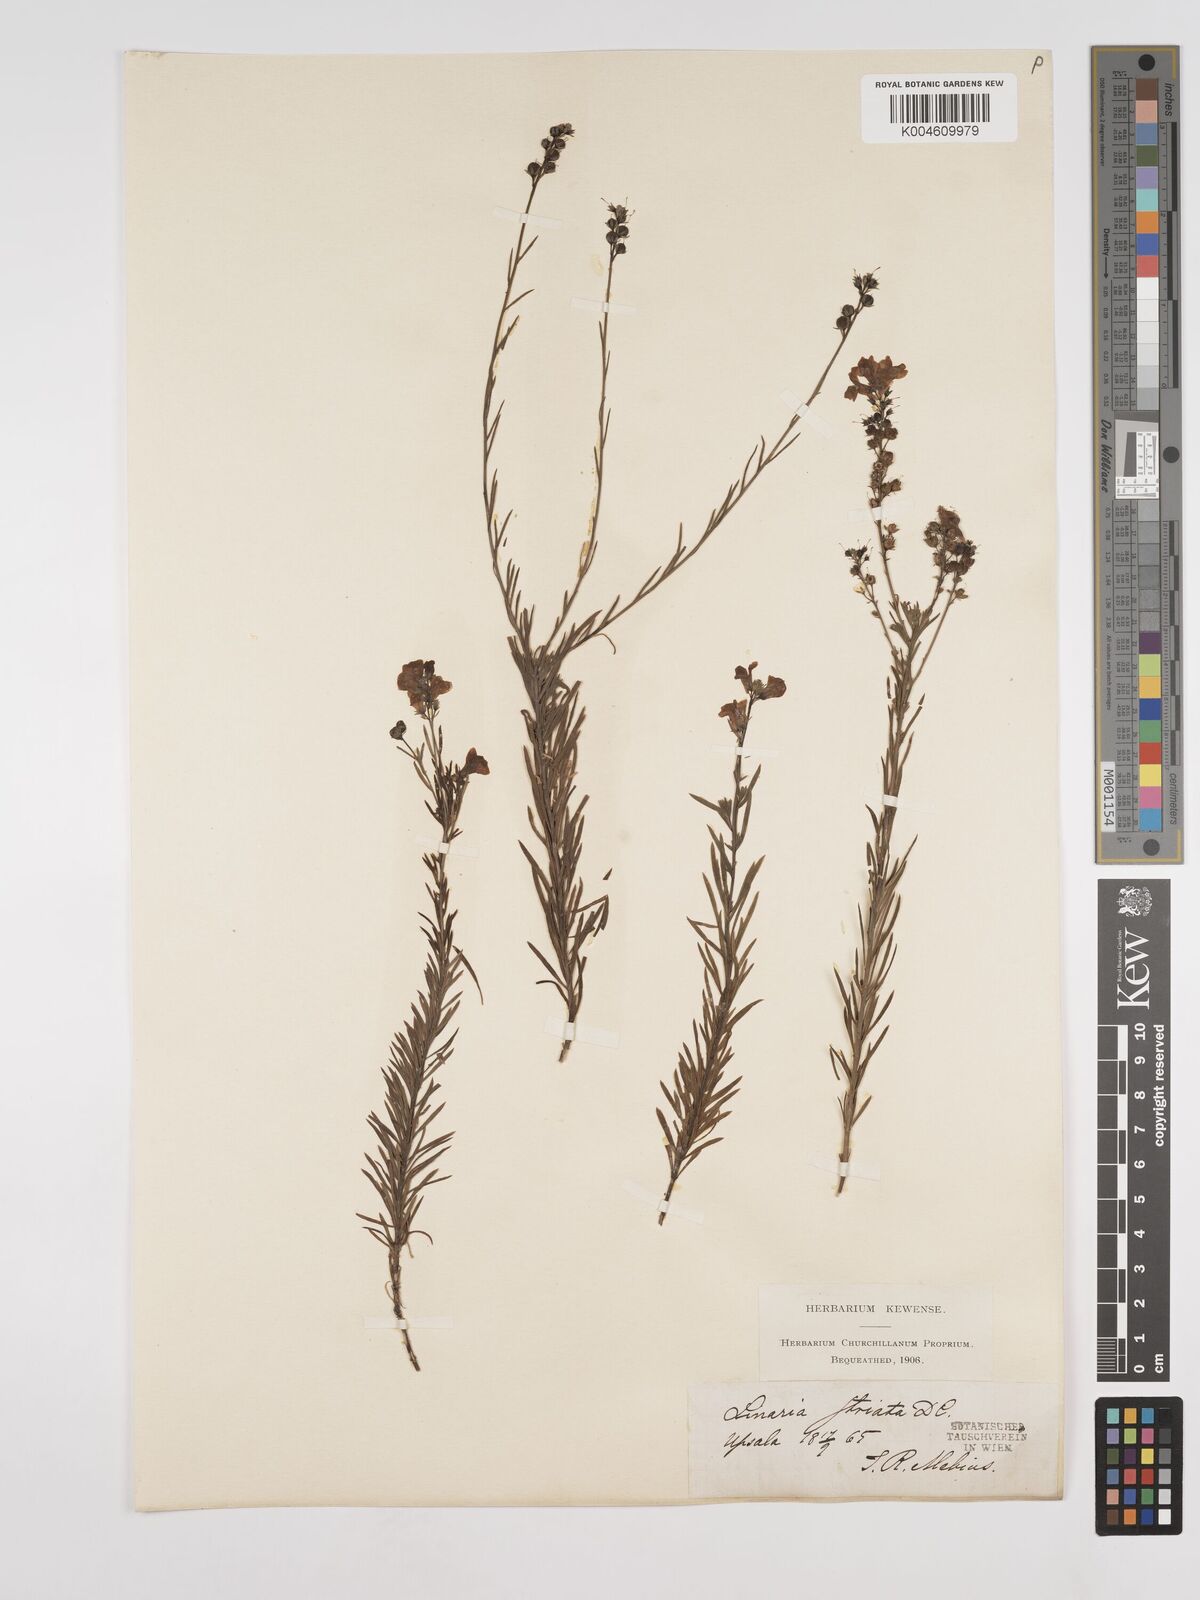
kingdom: Plantae
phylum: Tracheophyta
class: Magnoliopsida
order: Lamiales
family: Plantaginaceae
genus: Linaria
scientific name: Linaria
